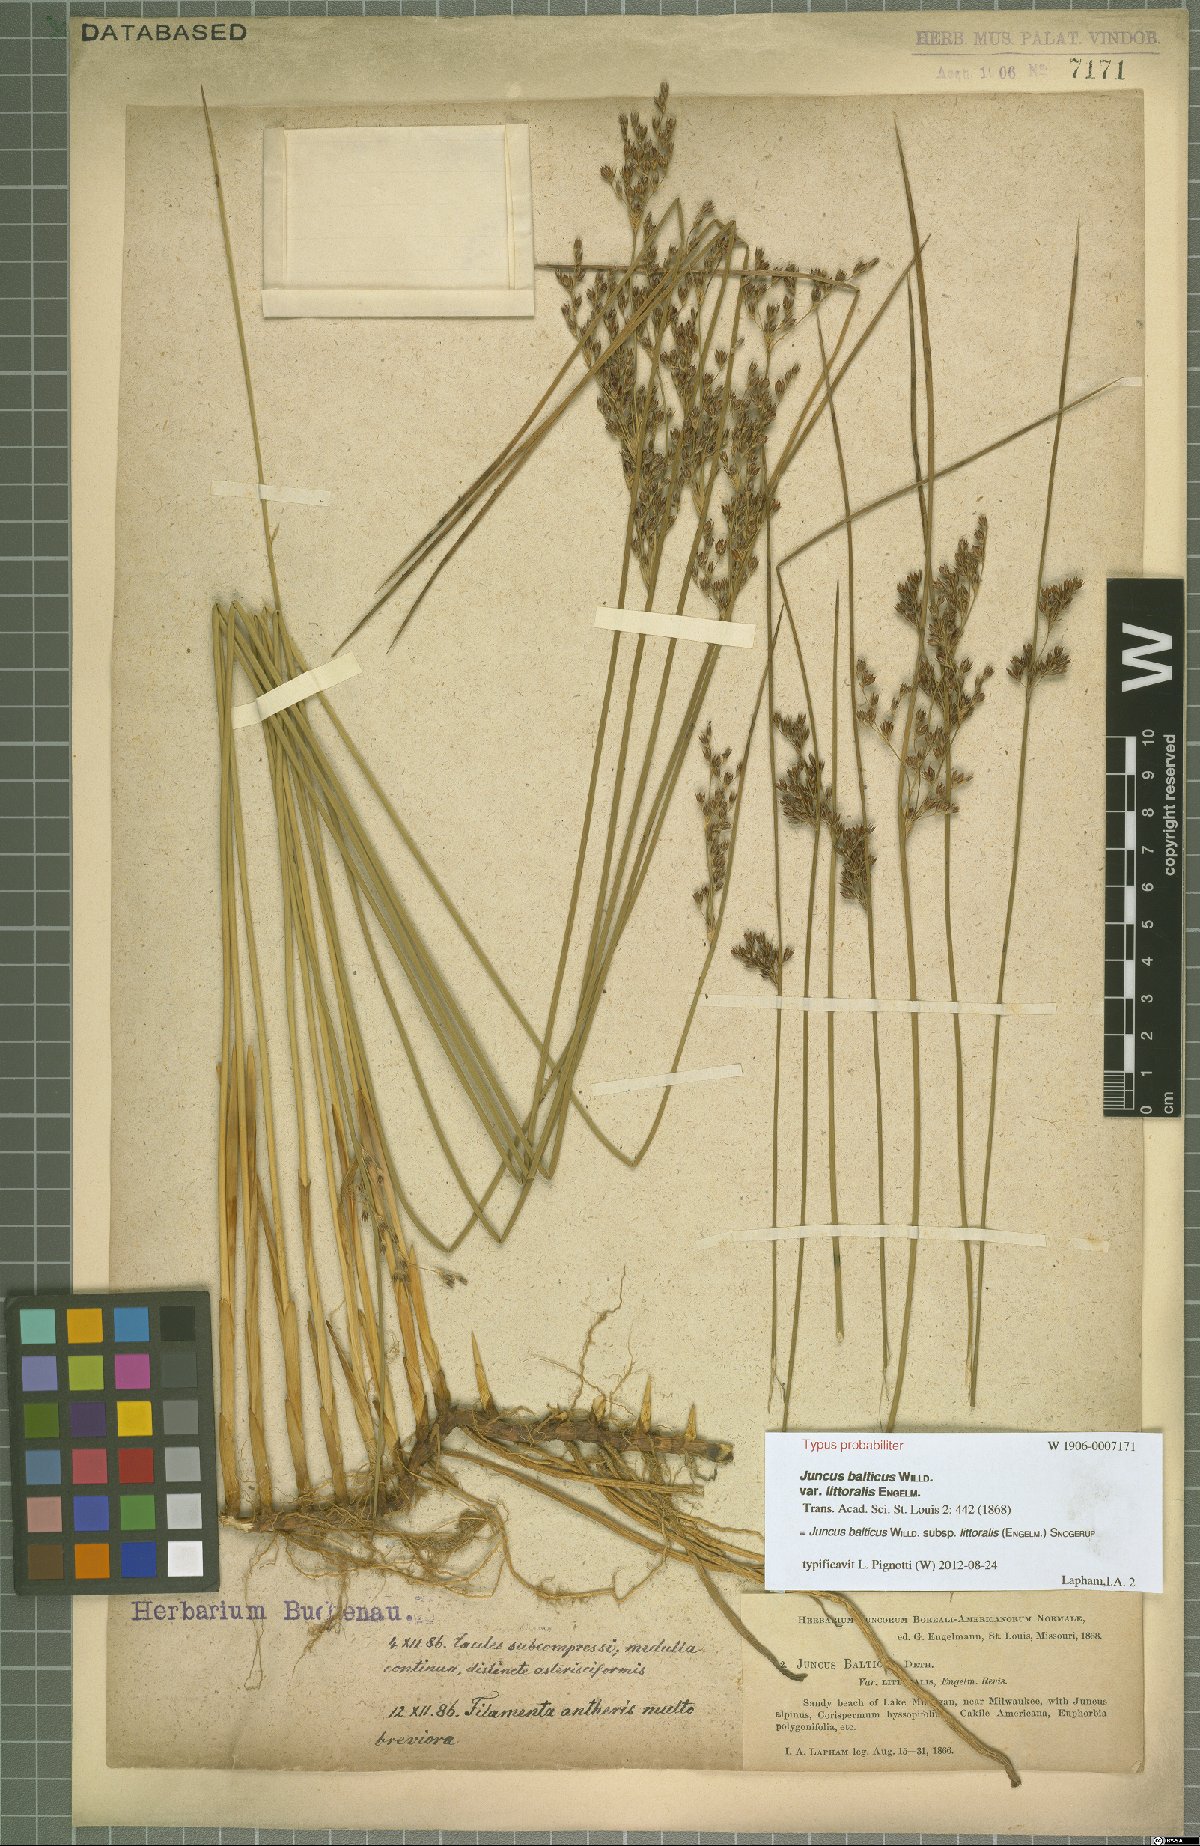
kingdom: Plantae
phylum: Tracheophyta
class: Liliopsida
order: Poales
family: Juncaceae
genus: Juncus
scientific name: Juncus balticus
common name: Baltic rush
